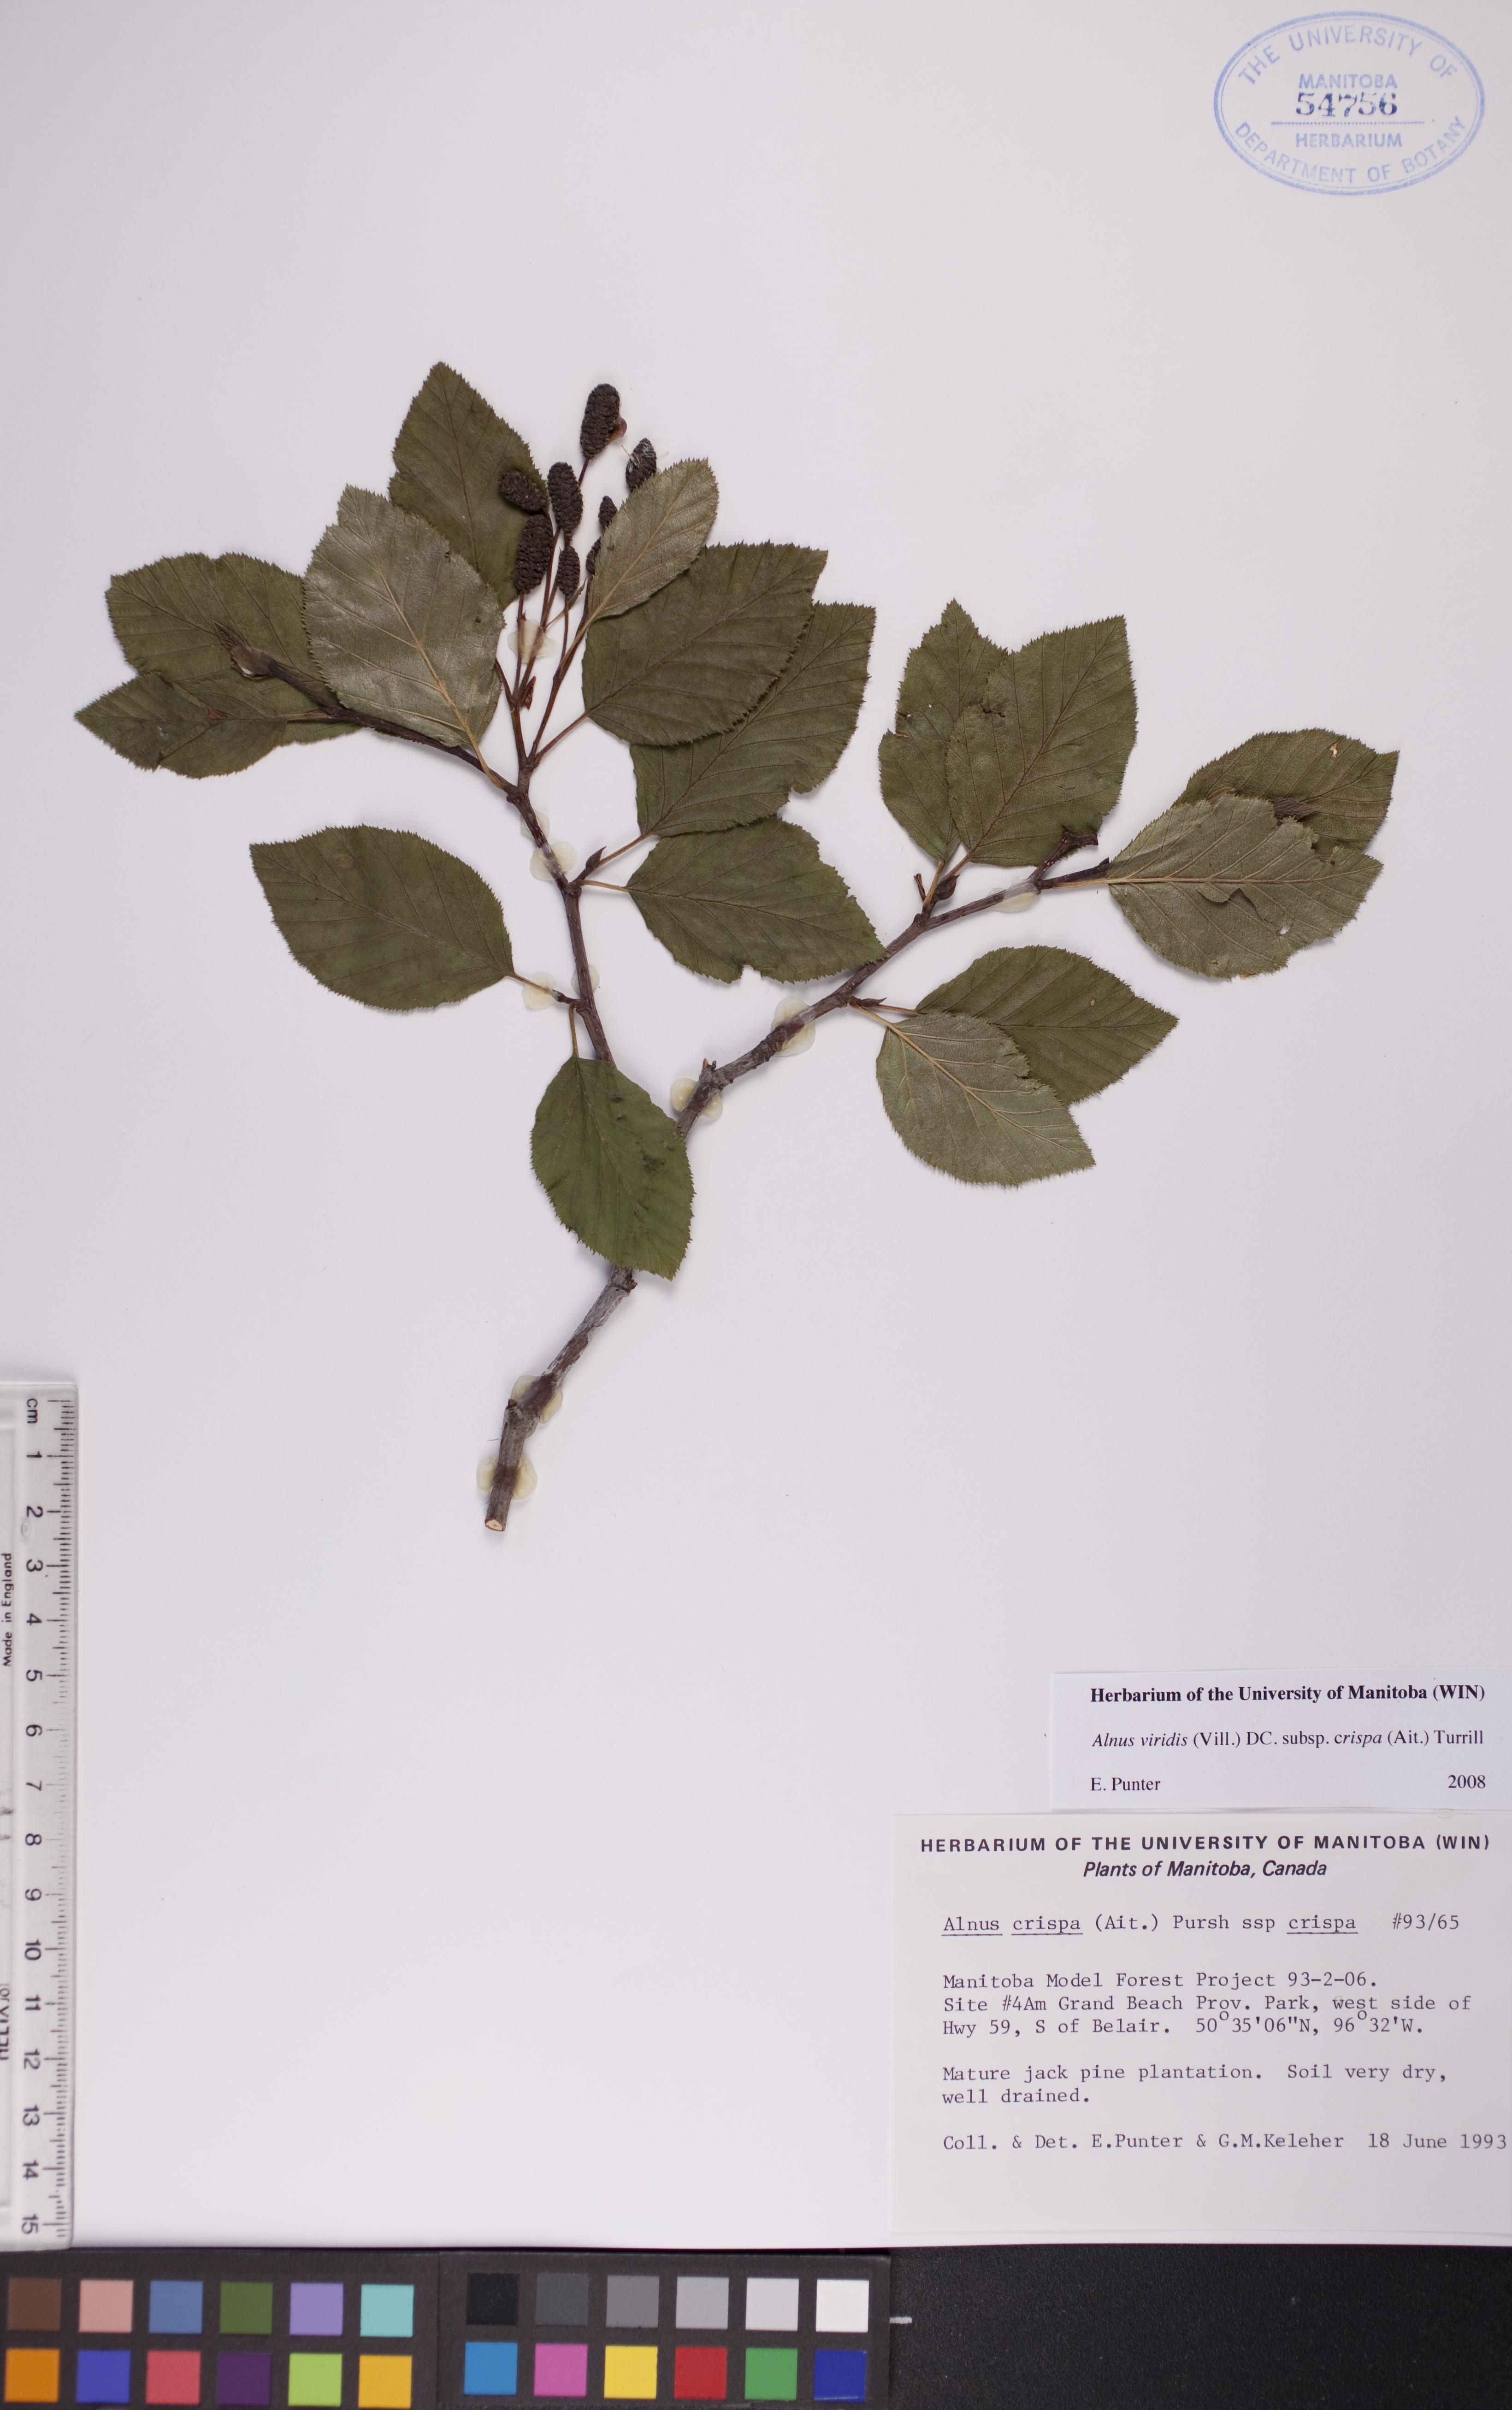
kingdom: Plantae
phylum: Tracheophyta
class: Magnoliopsida
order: Fagales
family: Betulaceae
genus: Alnus
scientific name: Alnus alnobetula
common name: Green alder
